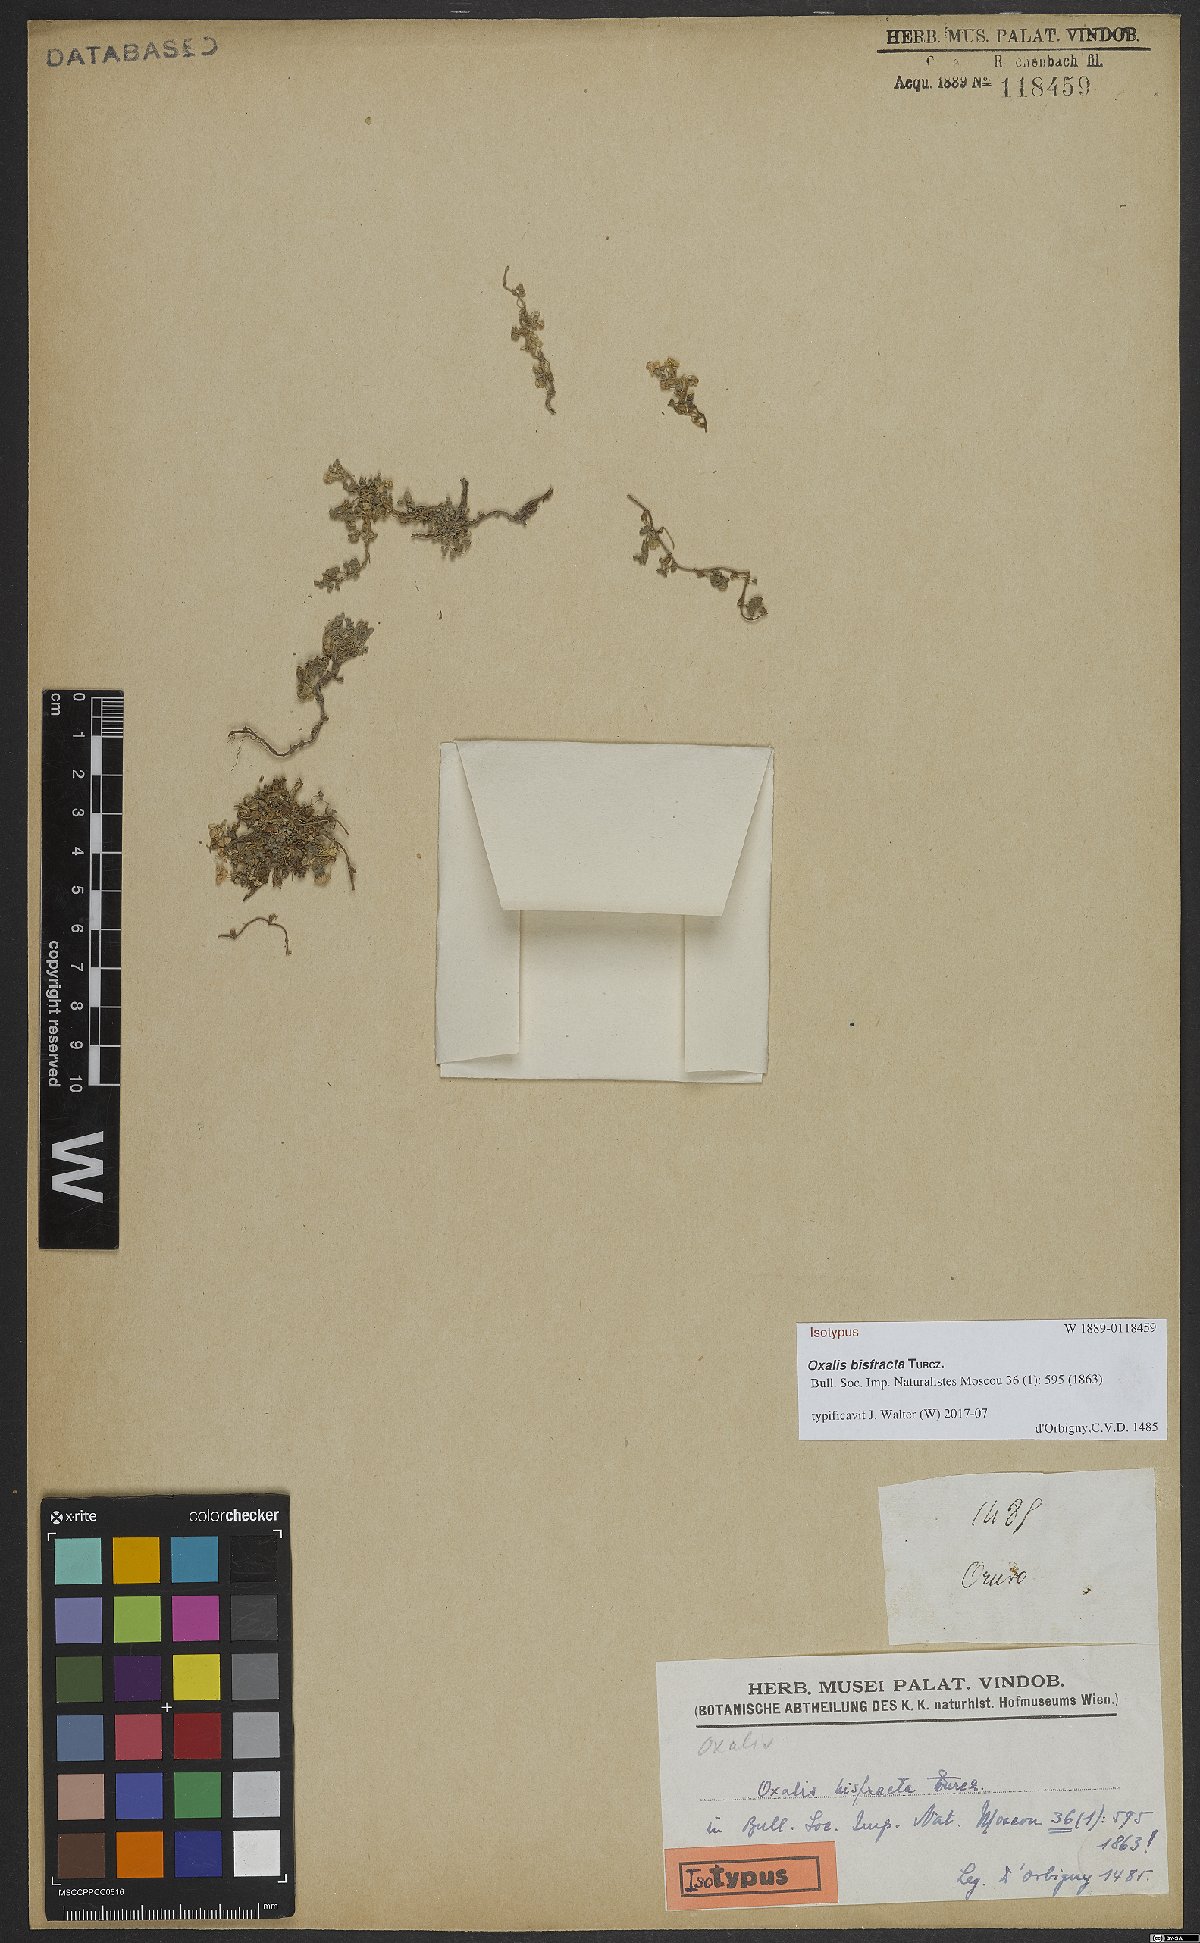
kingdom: Plantae
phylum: Tracheophyta
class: Magnoliopsida
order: Oxalidales
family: Oxalidaceae
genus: Oxalis
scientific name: Oxalis bisfracta
